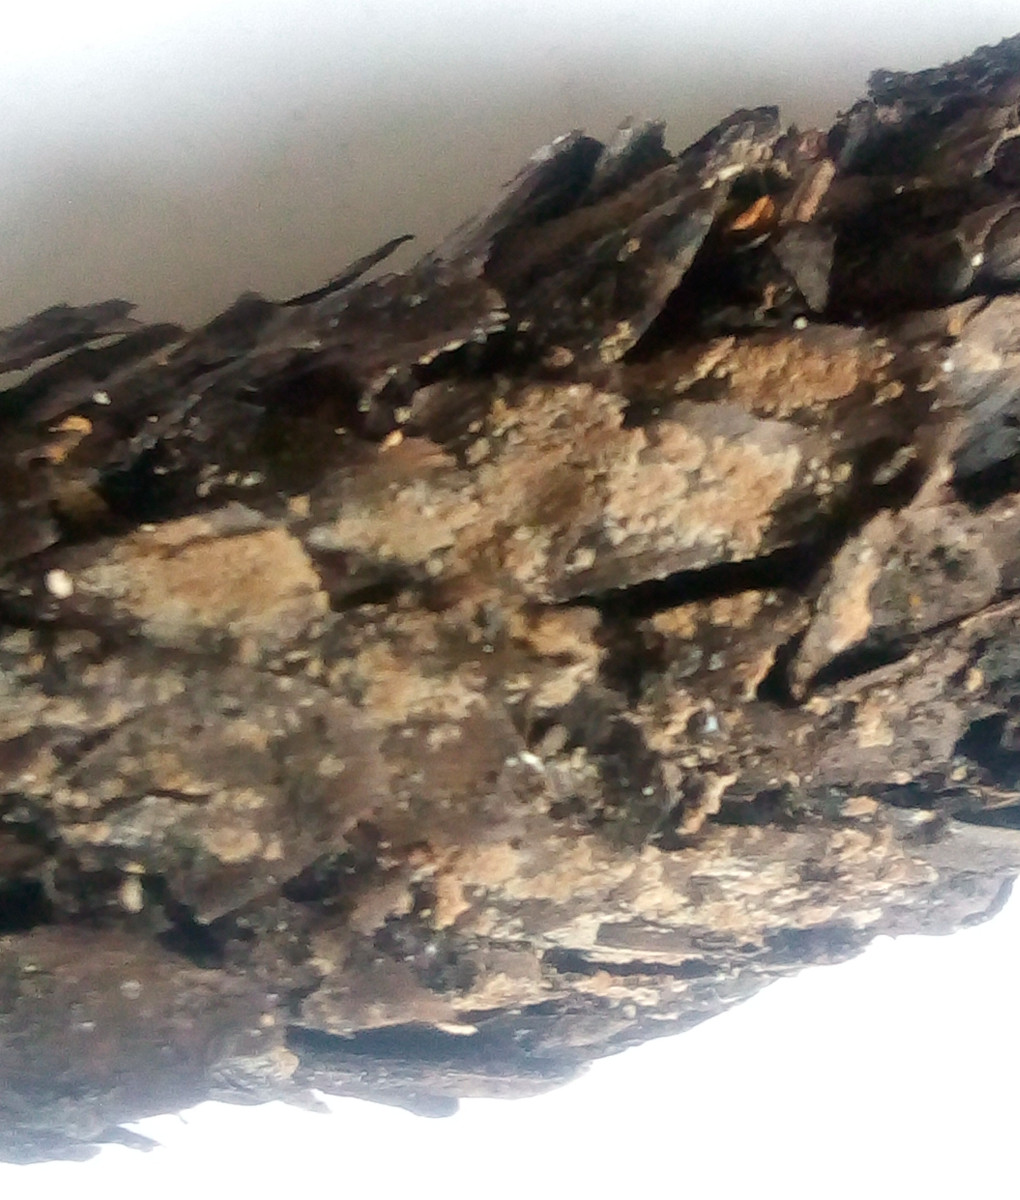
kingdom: Fungi
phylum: Basidiomycota
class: Agaricomycetes
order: Thelephorales
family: Thelephoraceae
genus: Tomentella
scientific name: Tomentella
